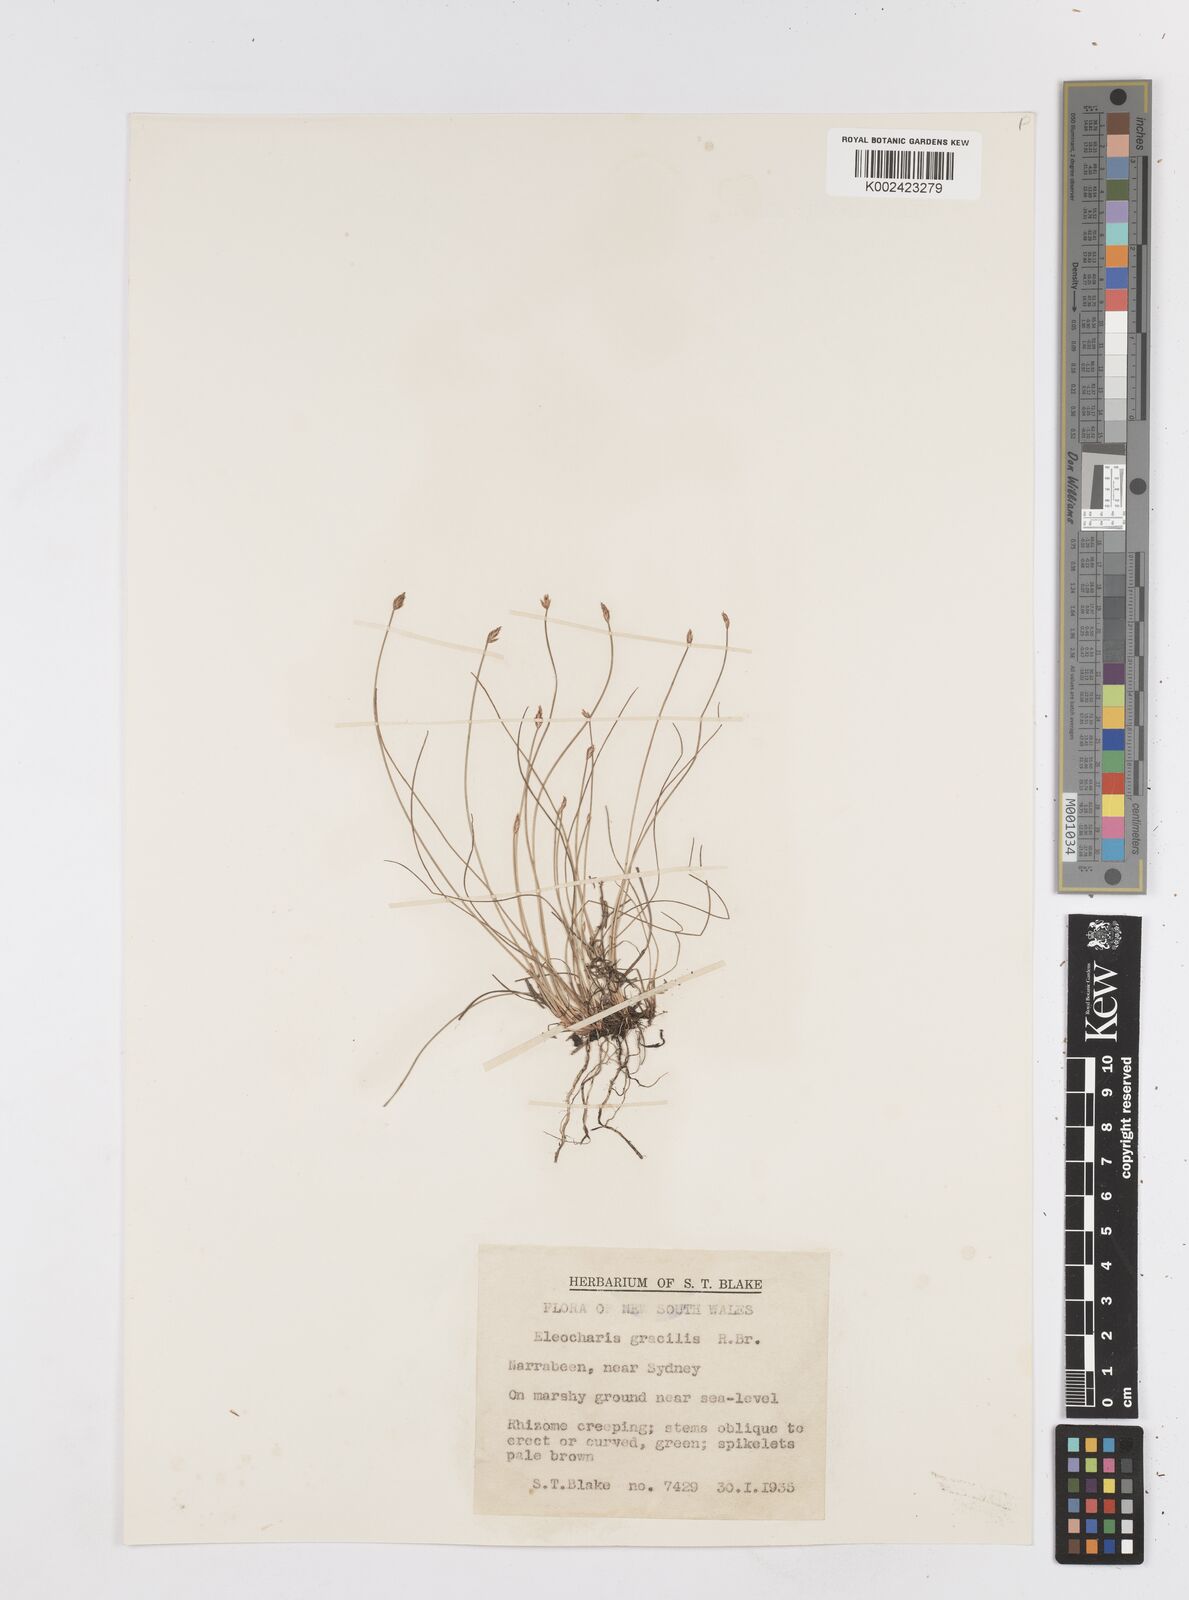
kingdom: Plantae
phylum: Tracheophyta
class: Liliopsida
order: Poales
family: Cyperaceae
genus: Eleocharis
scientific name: Eleocharis multicaulis
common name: Many-stalked spike-rush
